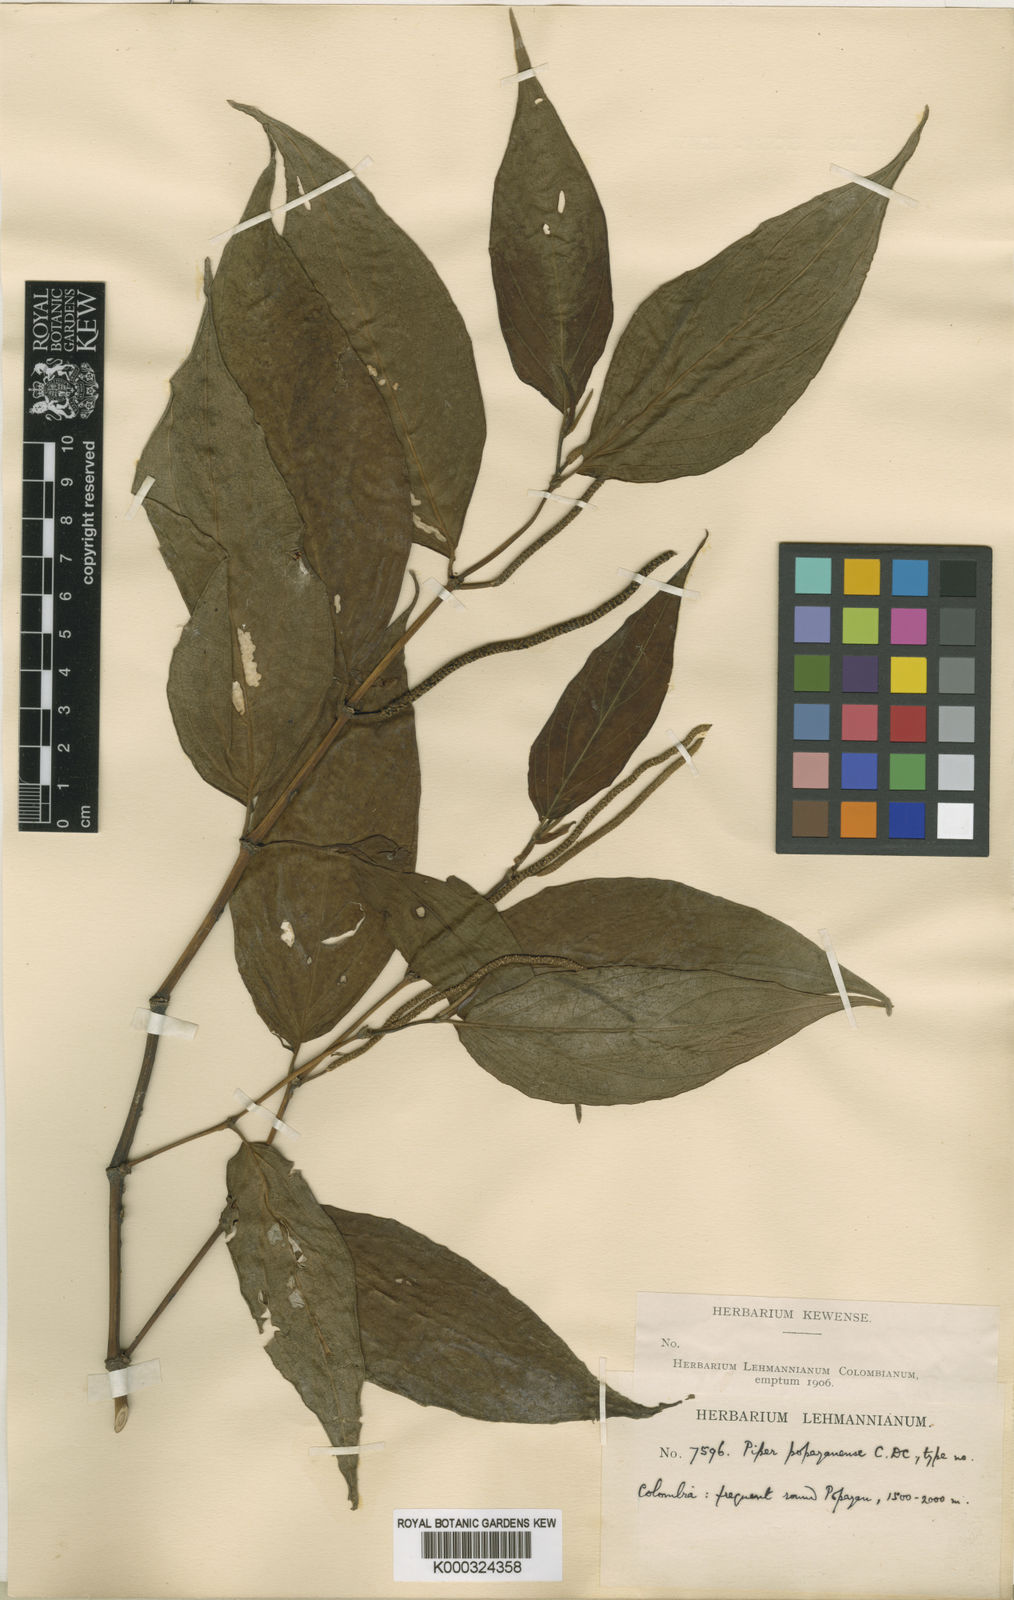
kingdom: Plantae
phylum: Tracheophyta
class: Magnoliopsida
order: Piperales
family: Piperaceae
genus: Piper
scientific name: Piper popayanense
